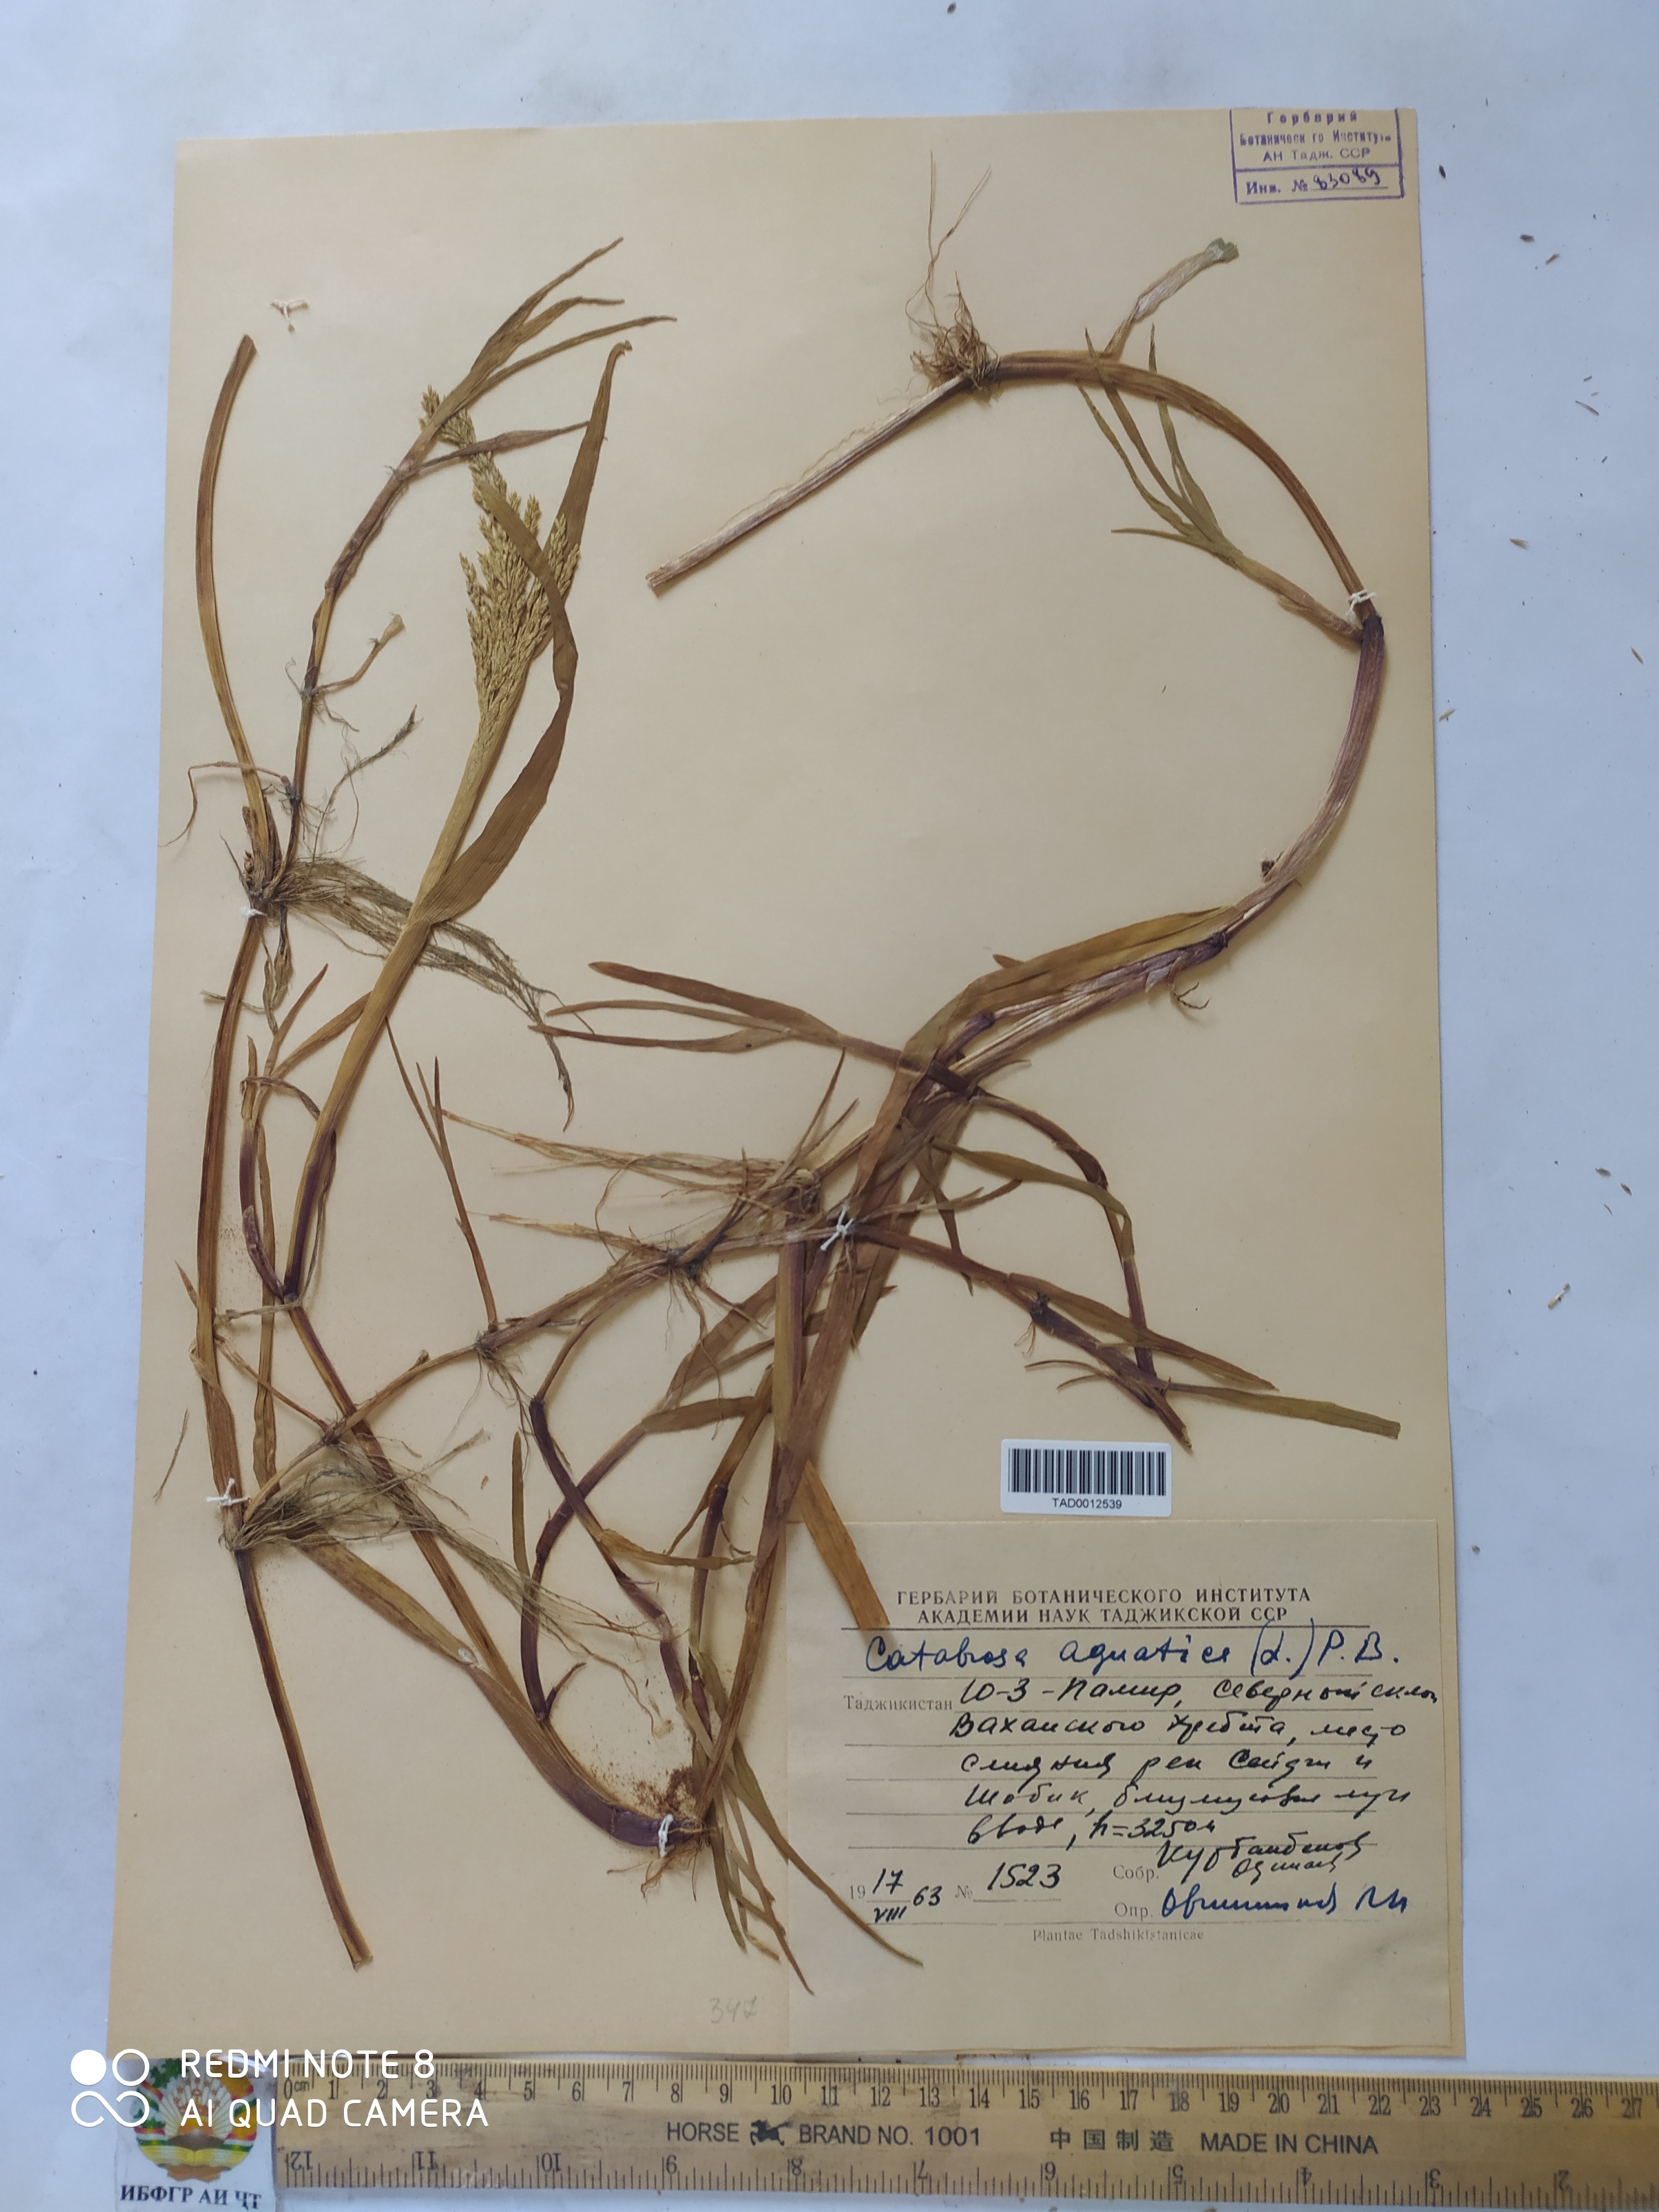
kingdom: Plantae
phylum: Tracheophyta
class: Liliopsida
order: Poales
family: Poaceae
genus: Catabrosa
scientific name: Catabrosa aquatica
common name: Whorl-grass
